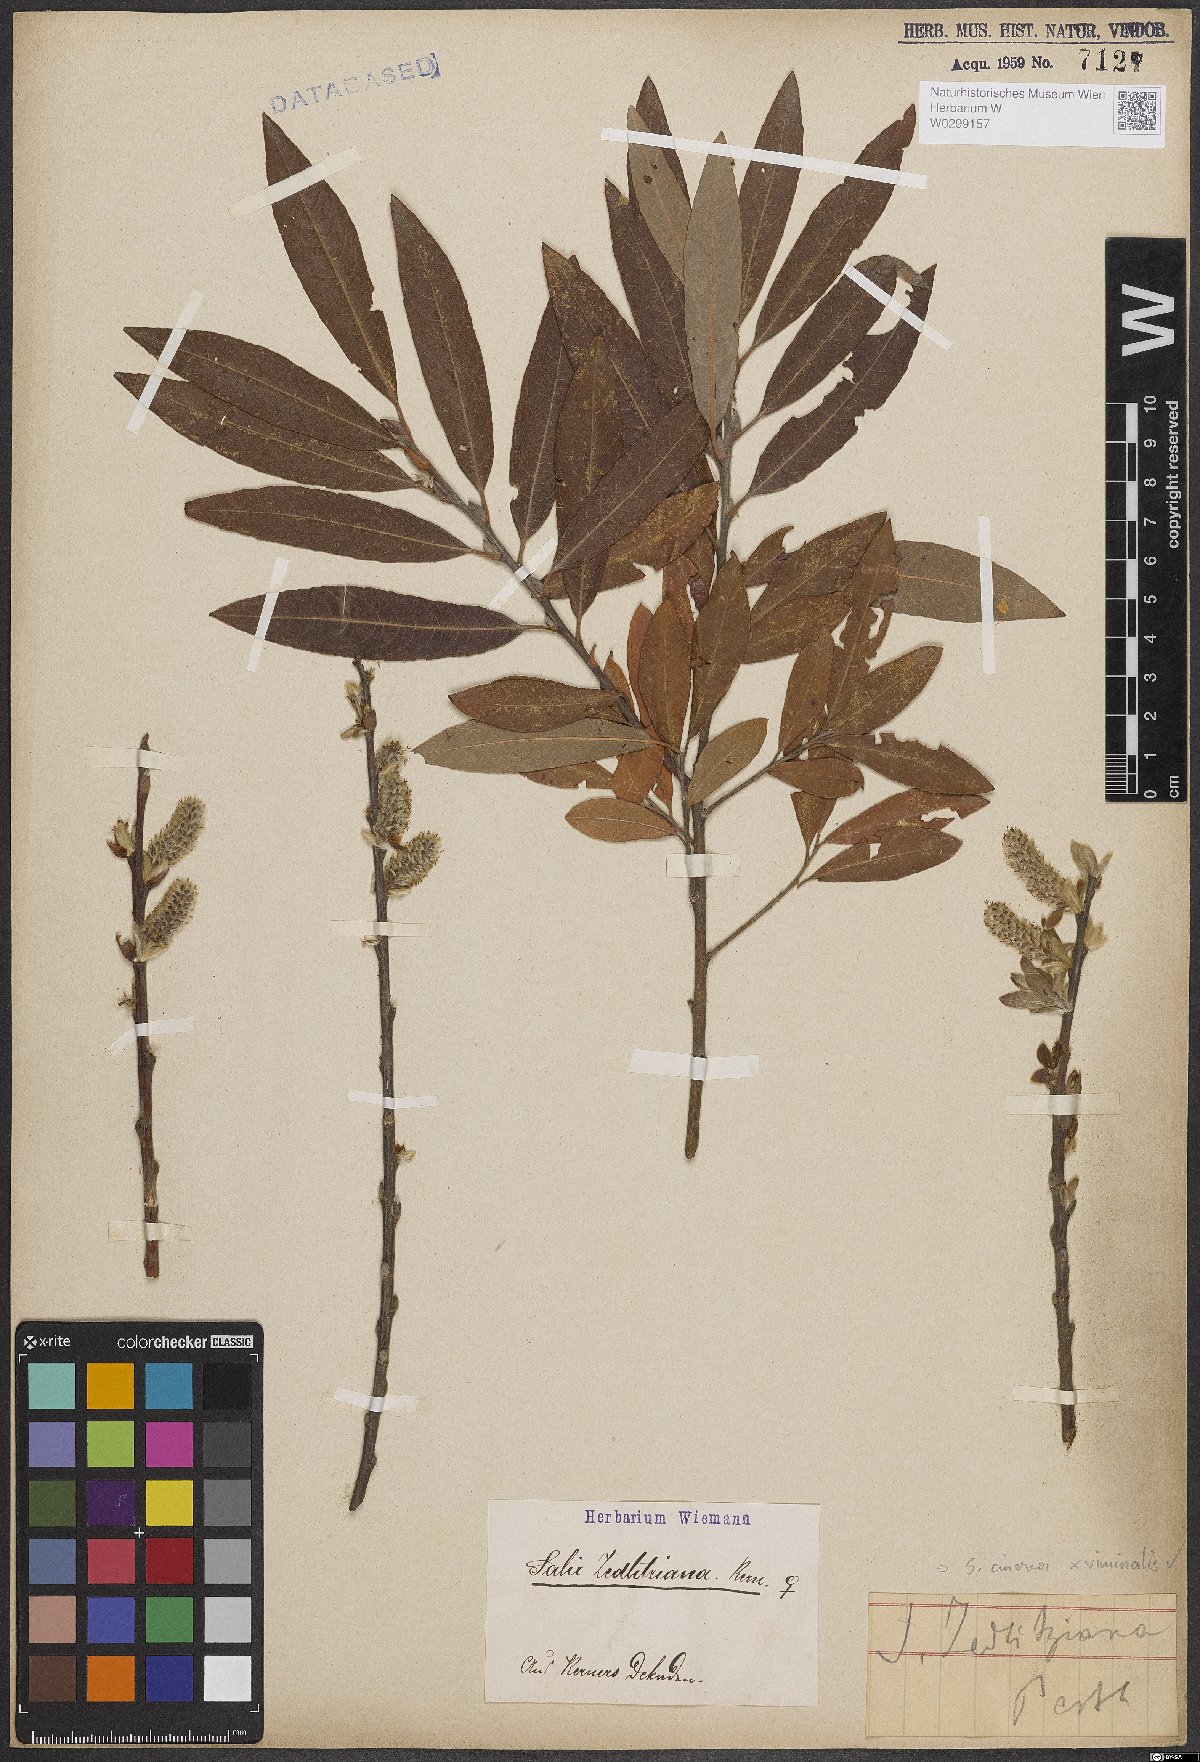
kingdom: Plantae
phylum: Tracheophyta
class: Magnoliopsida
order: Malpighiales
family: Salicaceae
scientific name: Salicaceae
